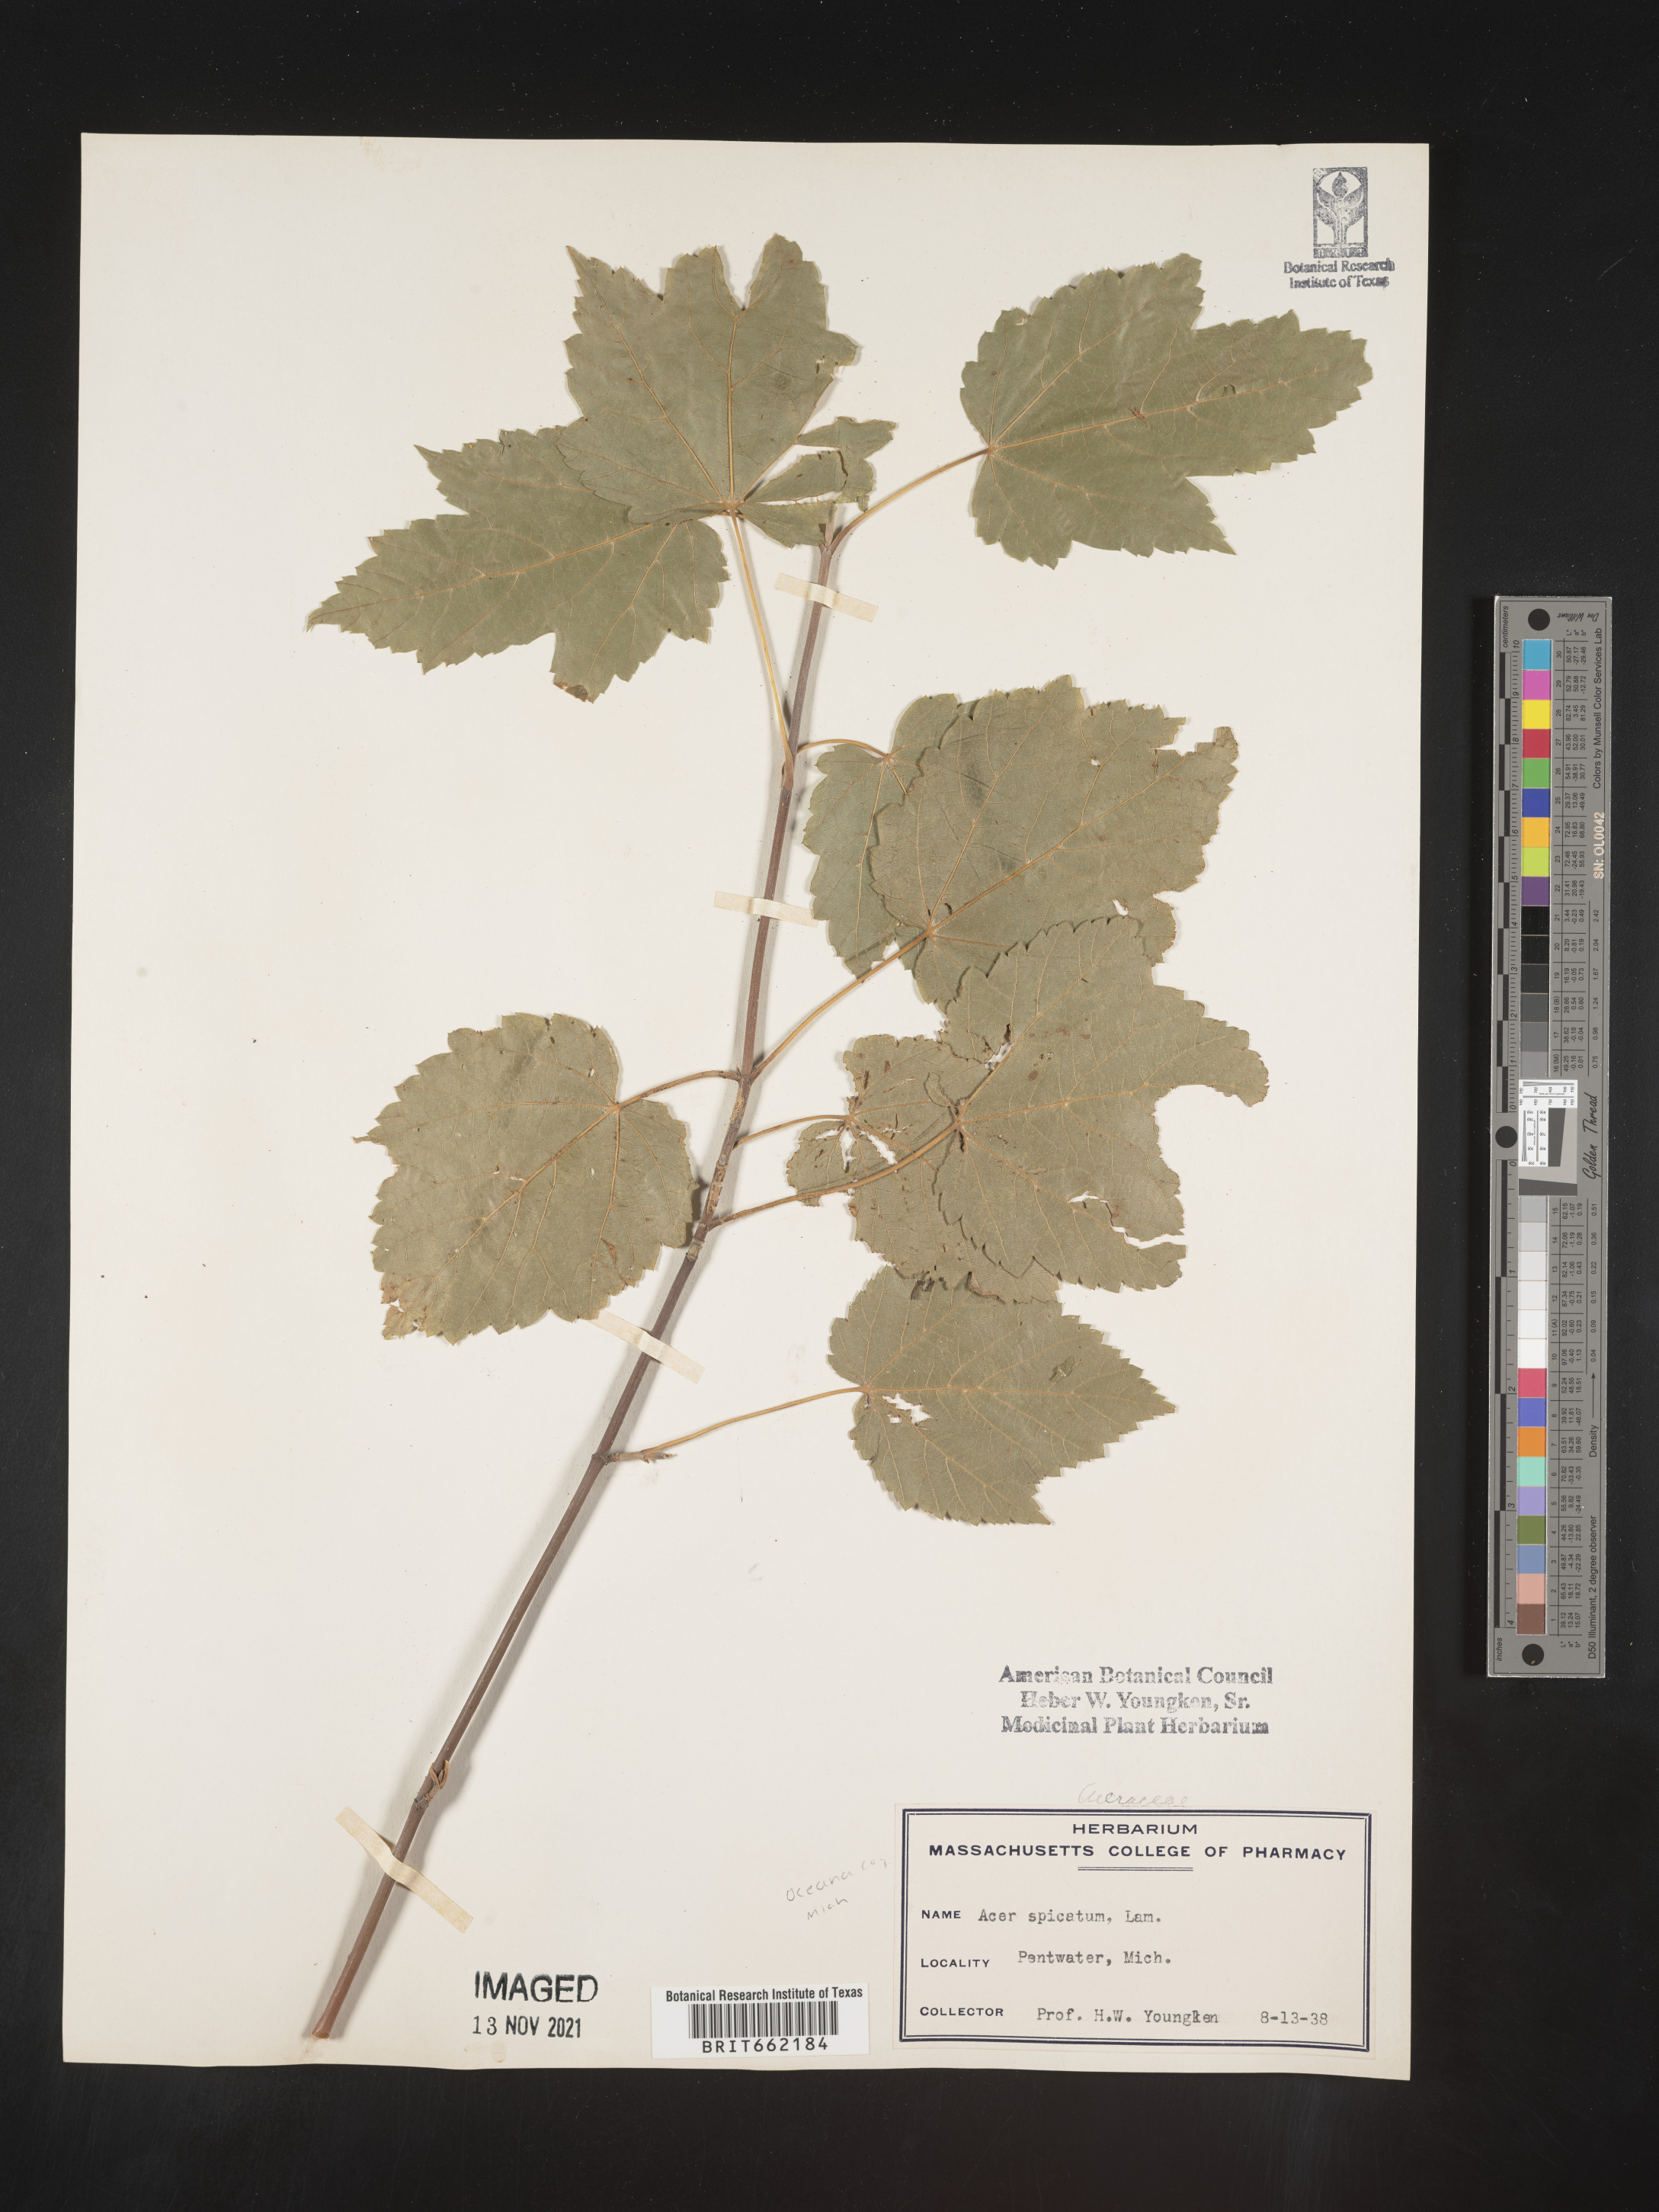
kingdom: Plantae
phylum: Tracheophyta
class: Magnoliopsida
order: Sapindales
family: Sapindaceae
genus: Acer
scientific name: Acer spicatum
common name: Mountain maple
